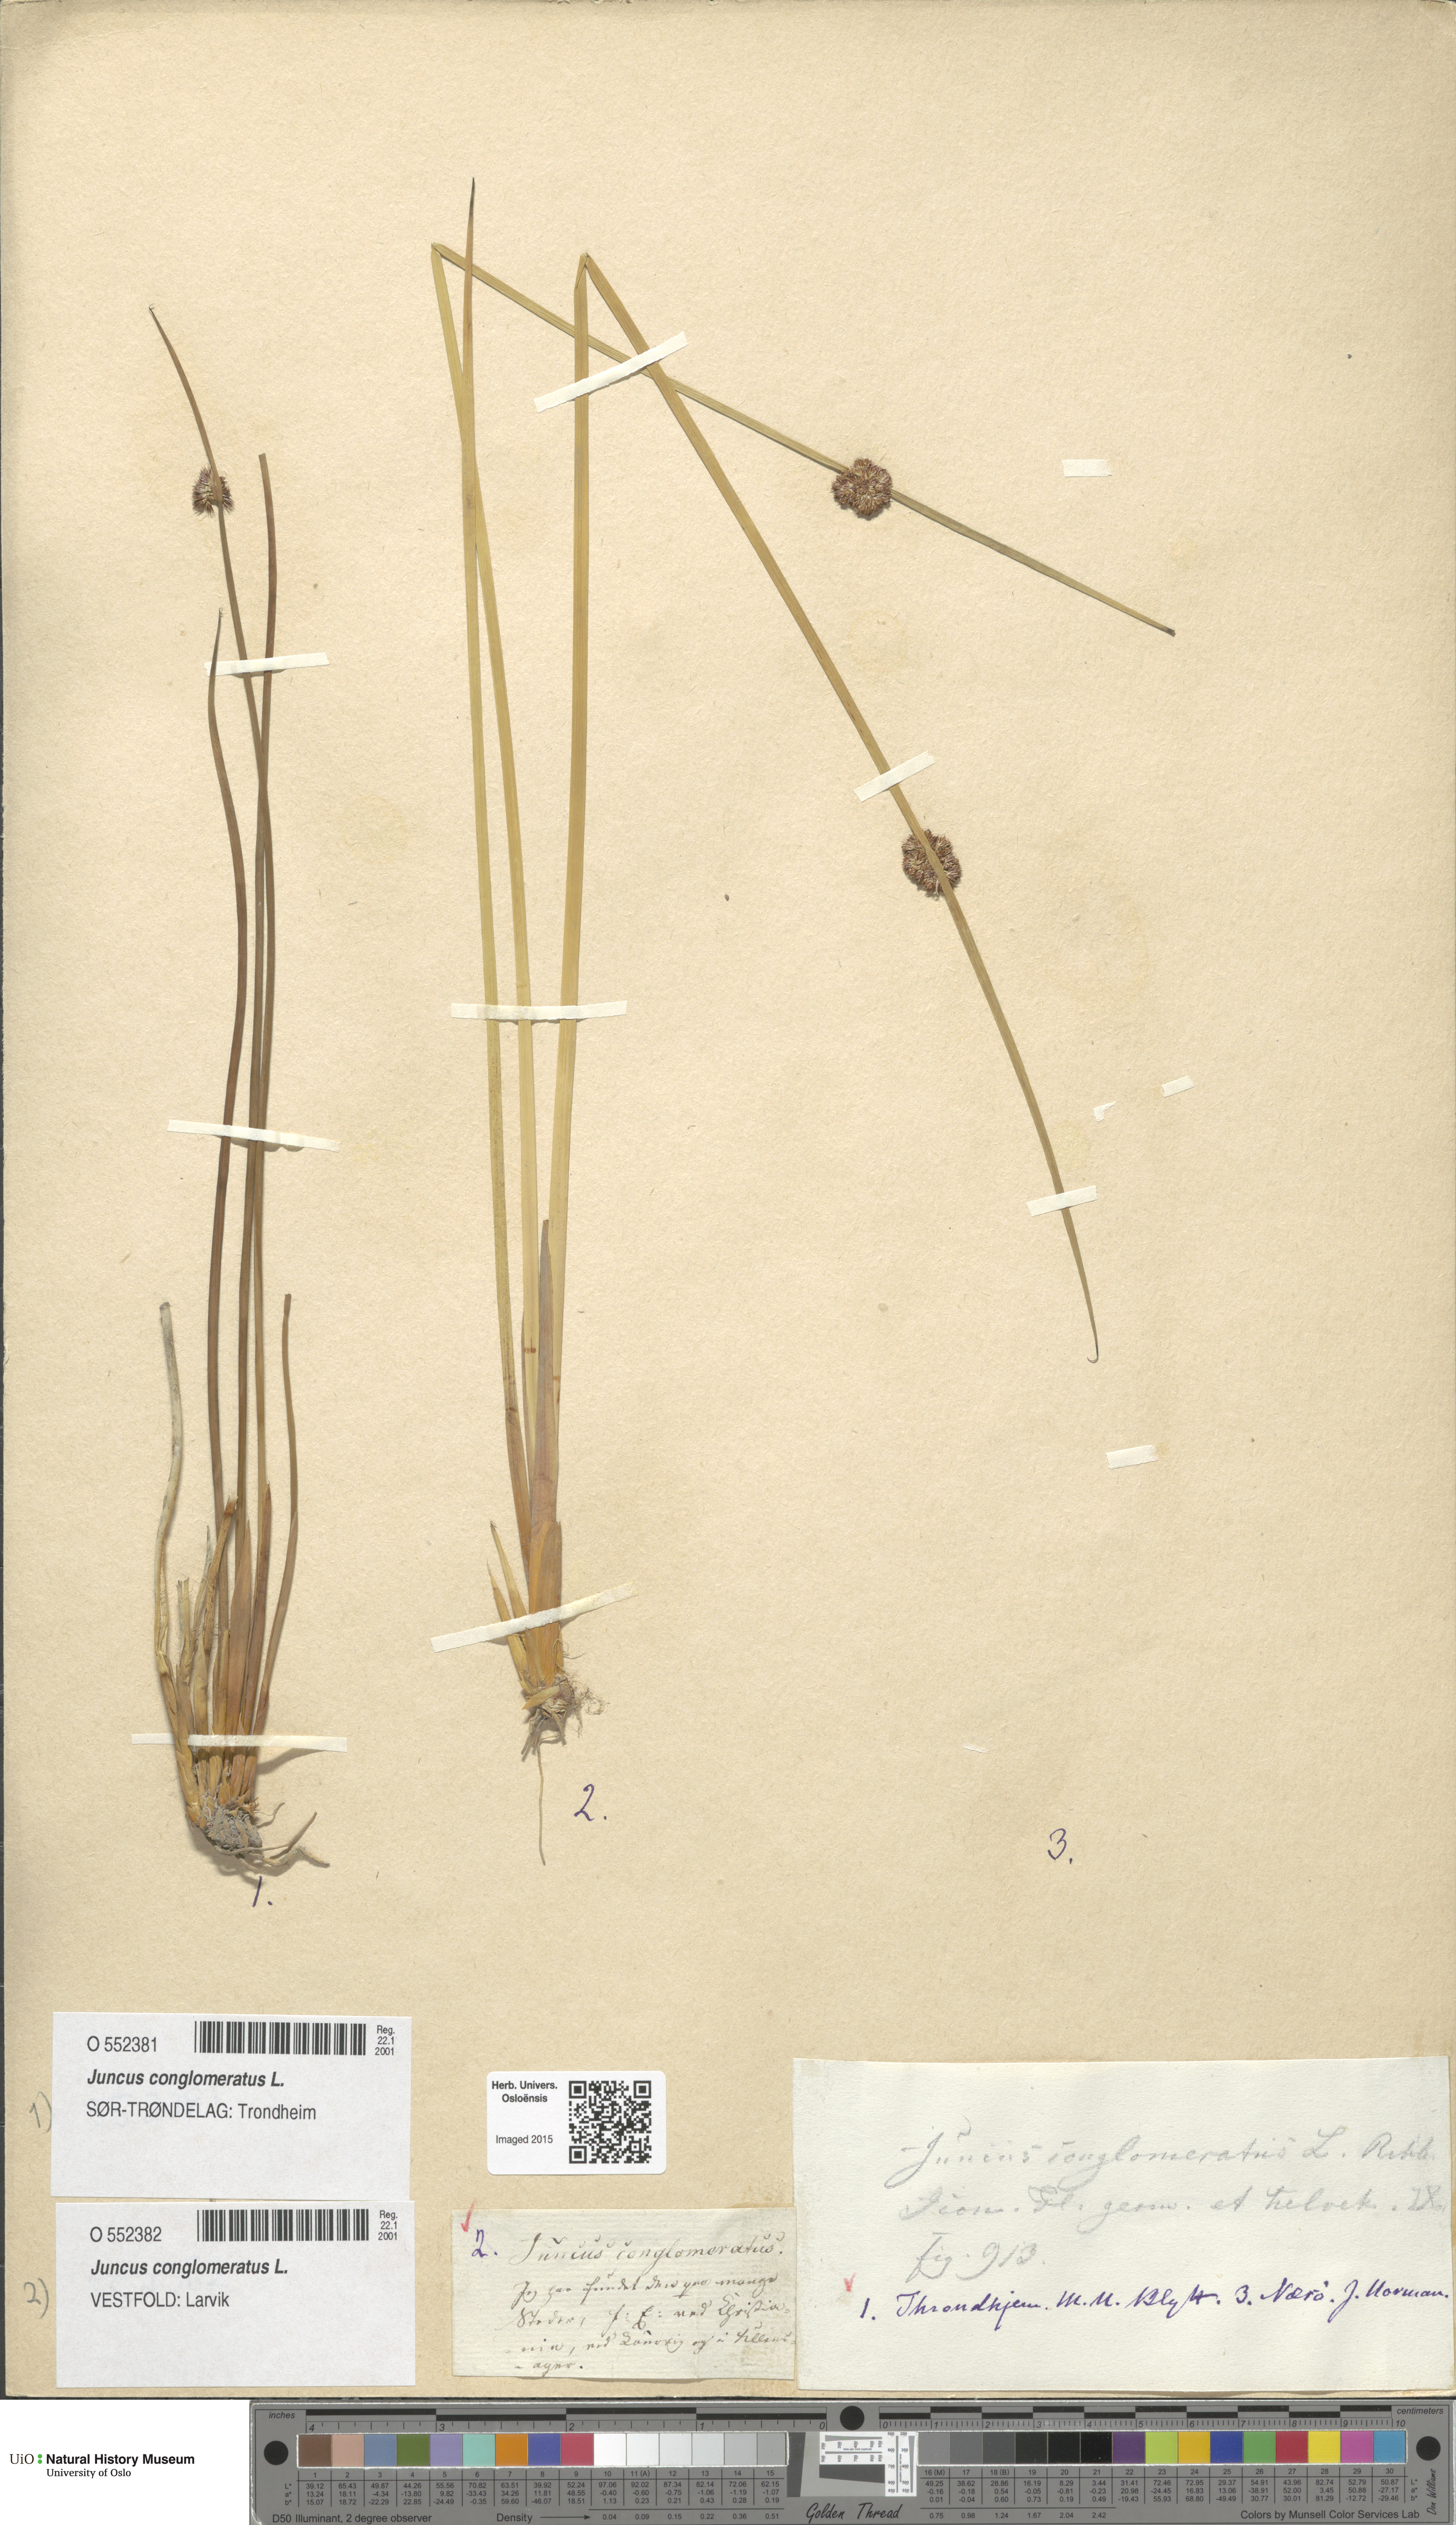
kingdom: Plantae
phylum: Tracheophyta
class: Liliopsida
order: Poales
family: Juncaceae
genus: Juncus
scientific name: Juncus conglomeratus
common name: Compact rush
